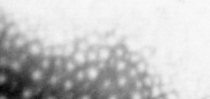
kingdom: Animalia
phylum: Chordata
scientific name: Chordata
